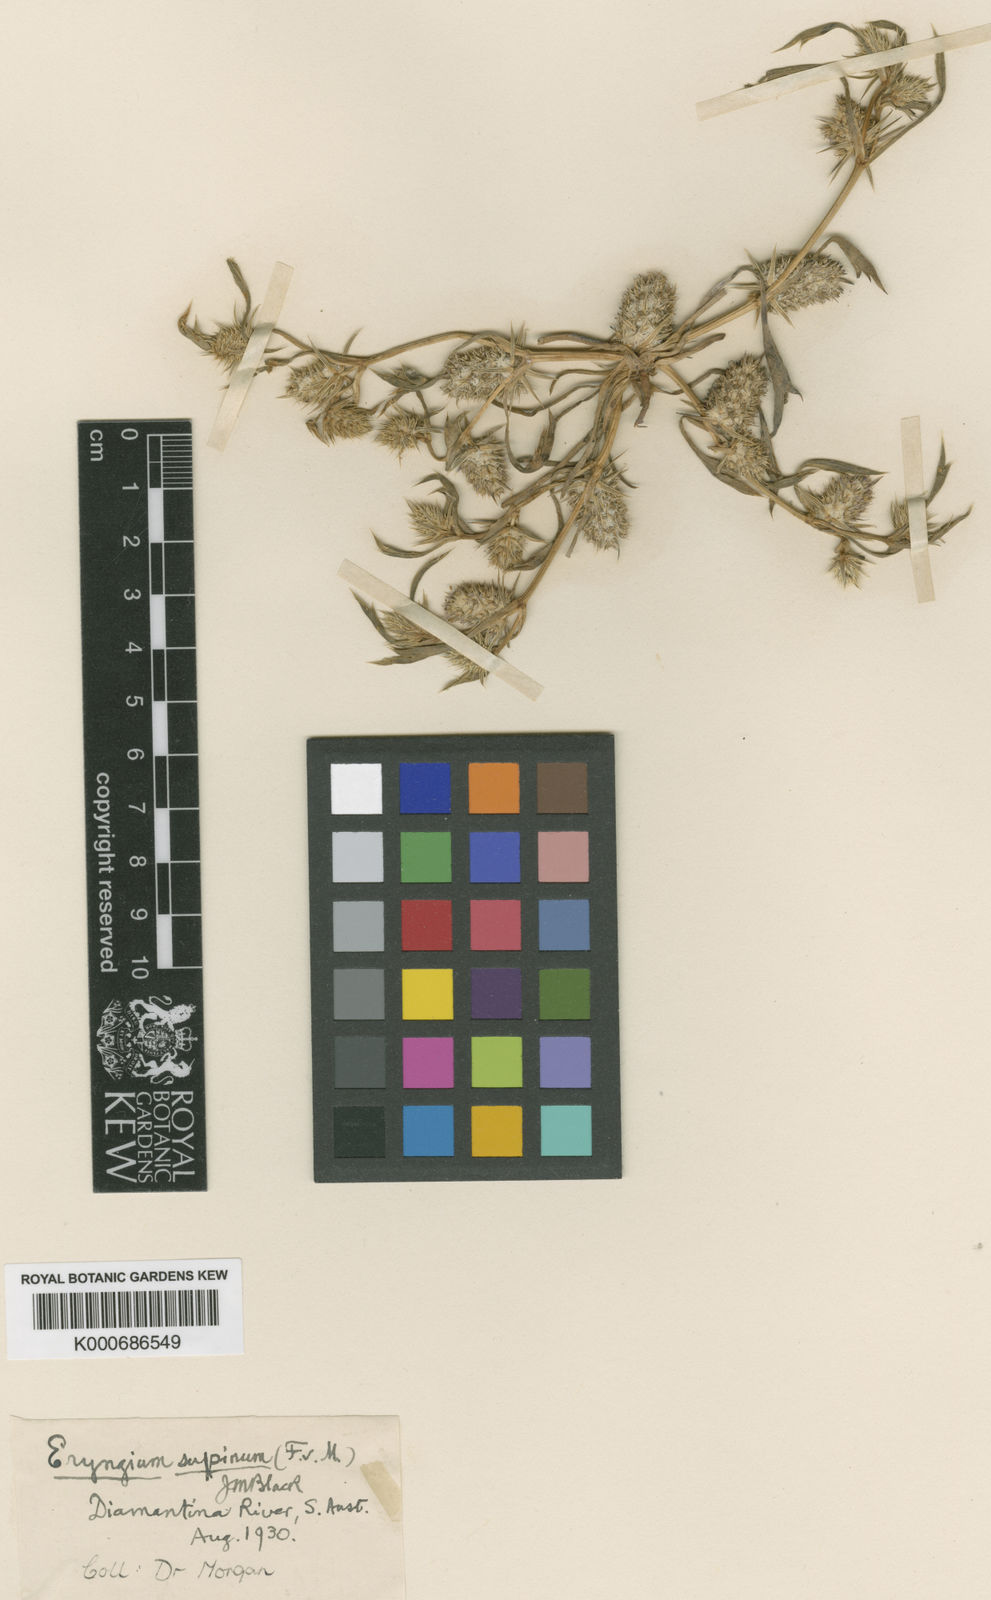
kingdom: Plantae
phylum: Tracheophyta
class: Magnoliopsida
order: Apiales
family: Apiaceae
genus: Eryngium
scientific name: Eryngium supinum
